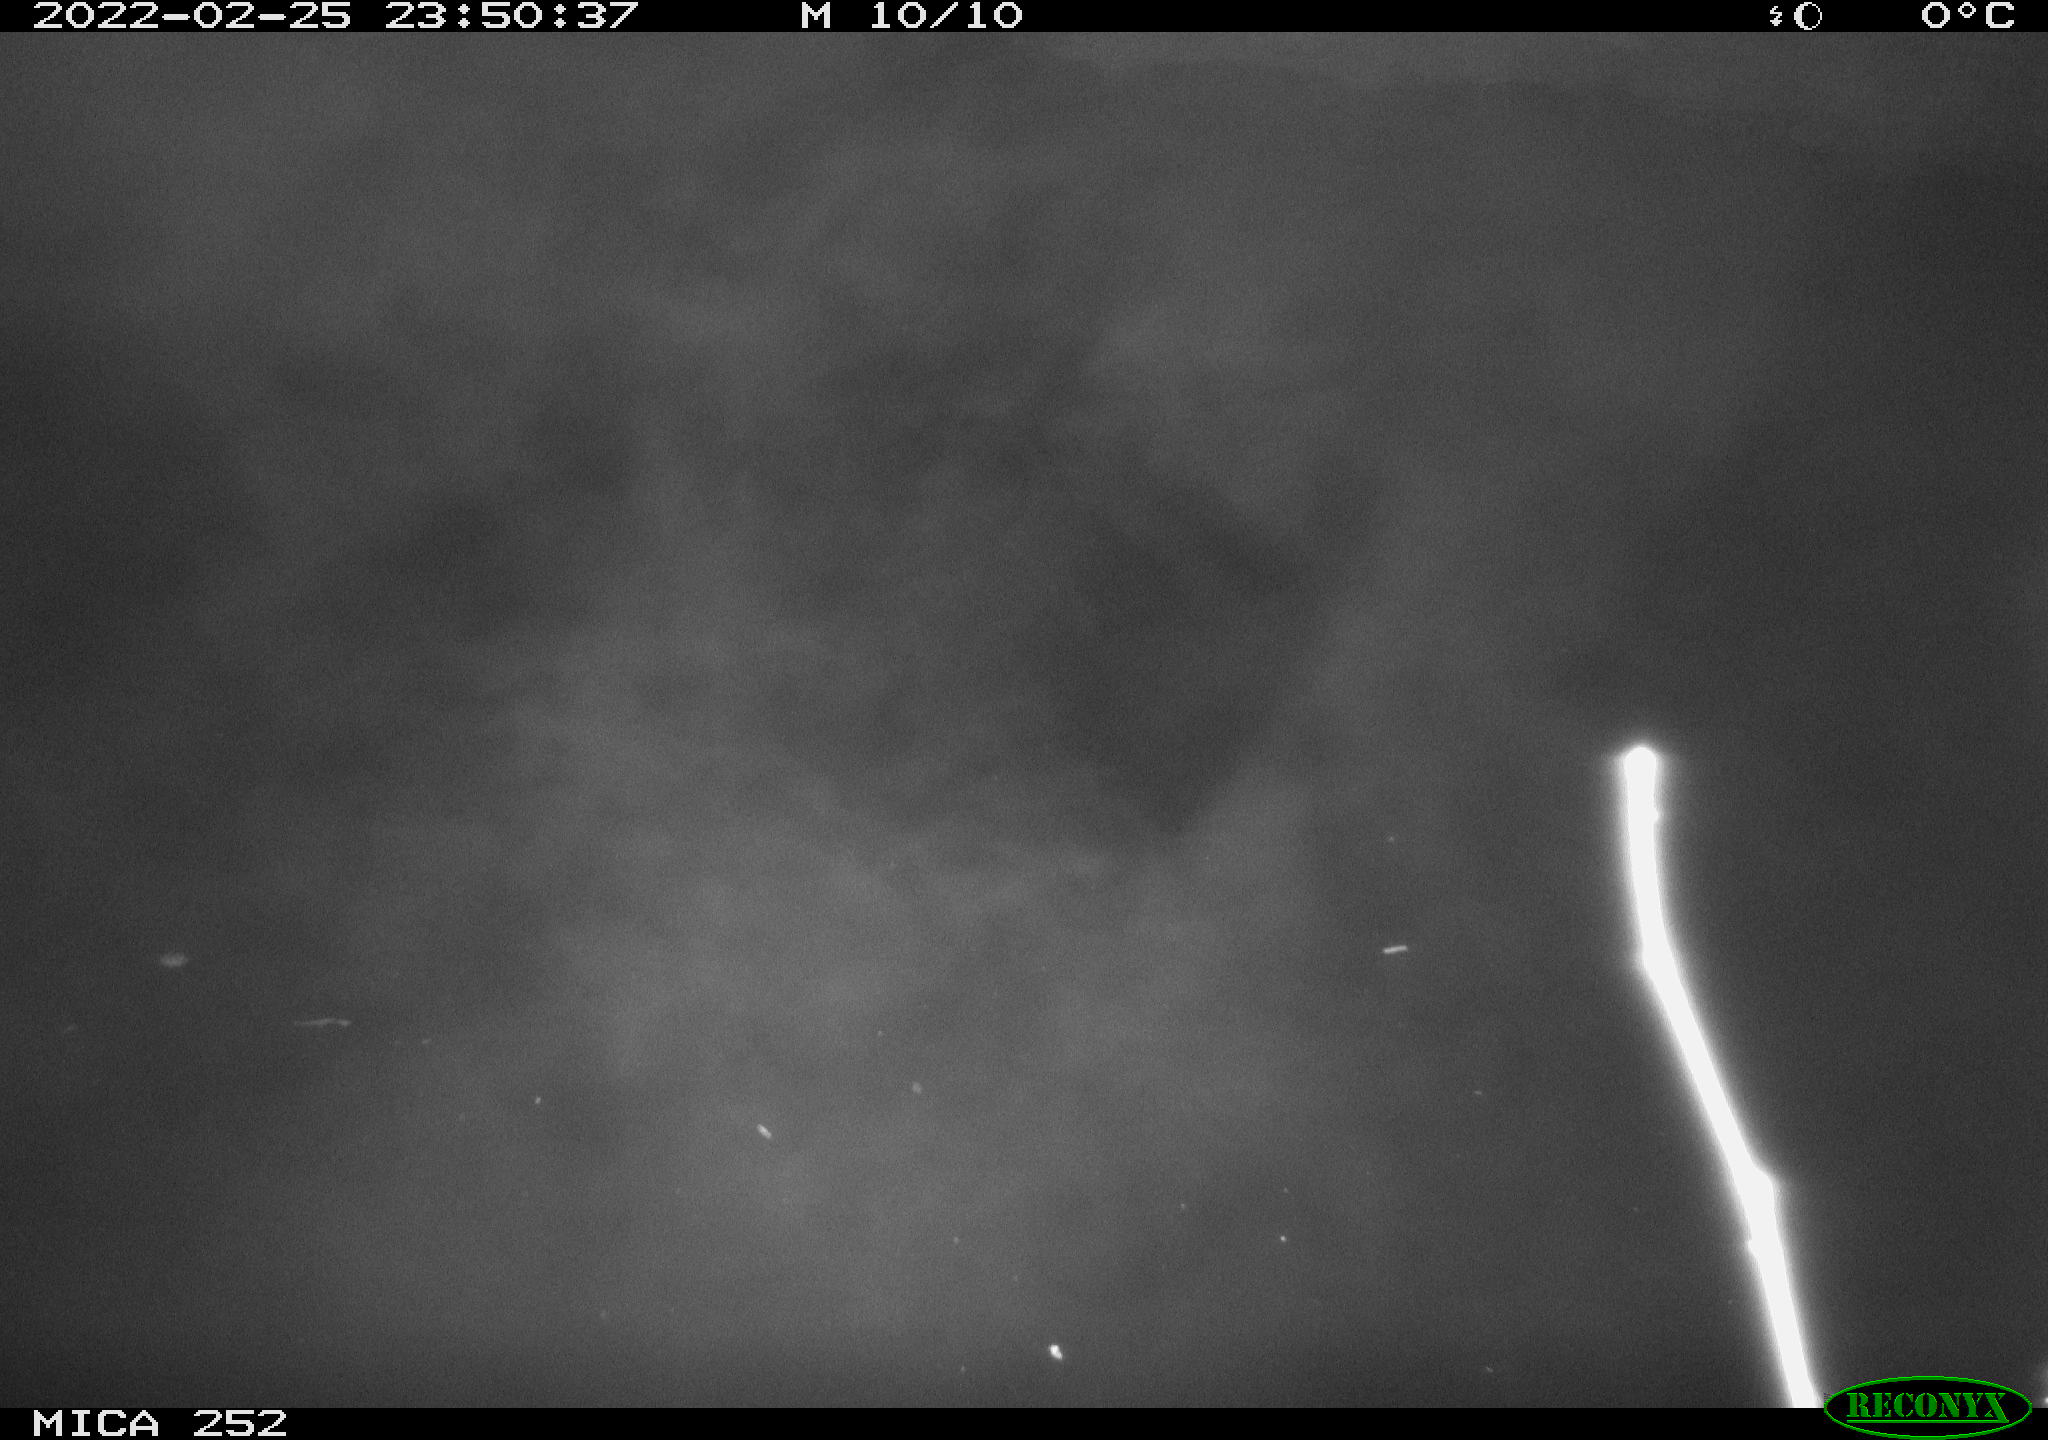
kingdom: Animalia
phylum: Chordata
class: Mammalia
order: Rodentia
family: Castoridae
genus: Castor
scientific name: Castor fiber
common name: Eurasian beaver
